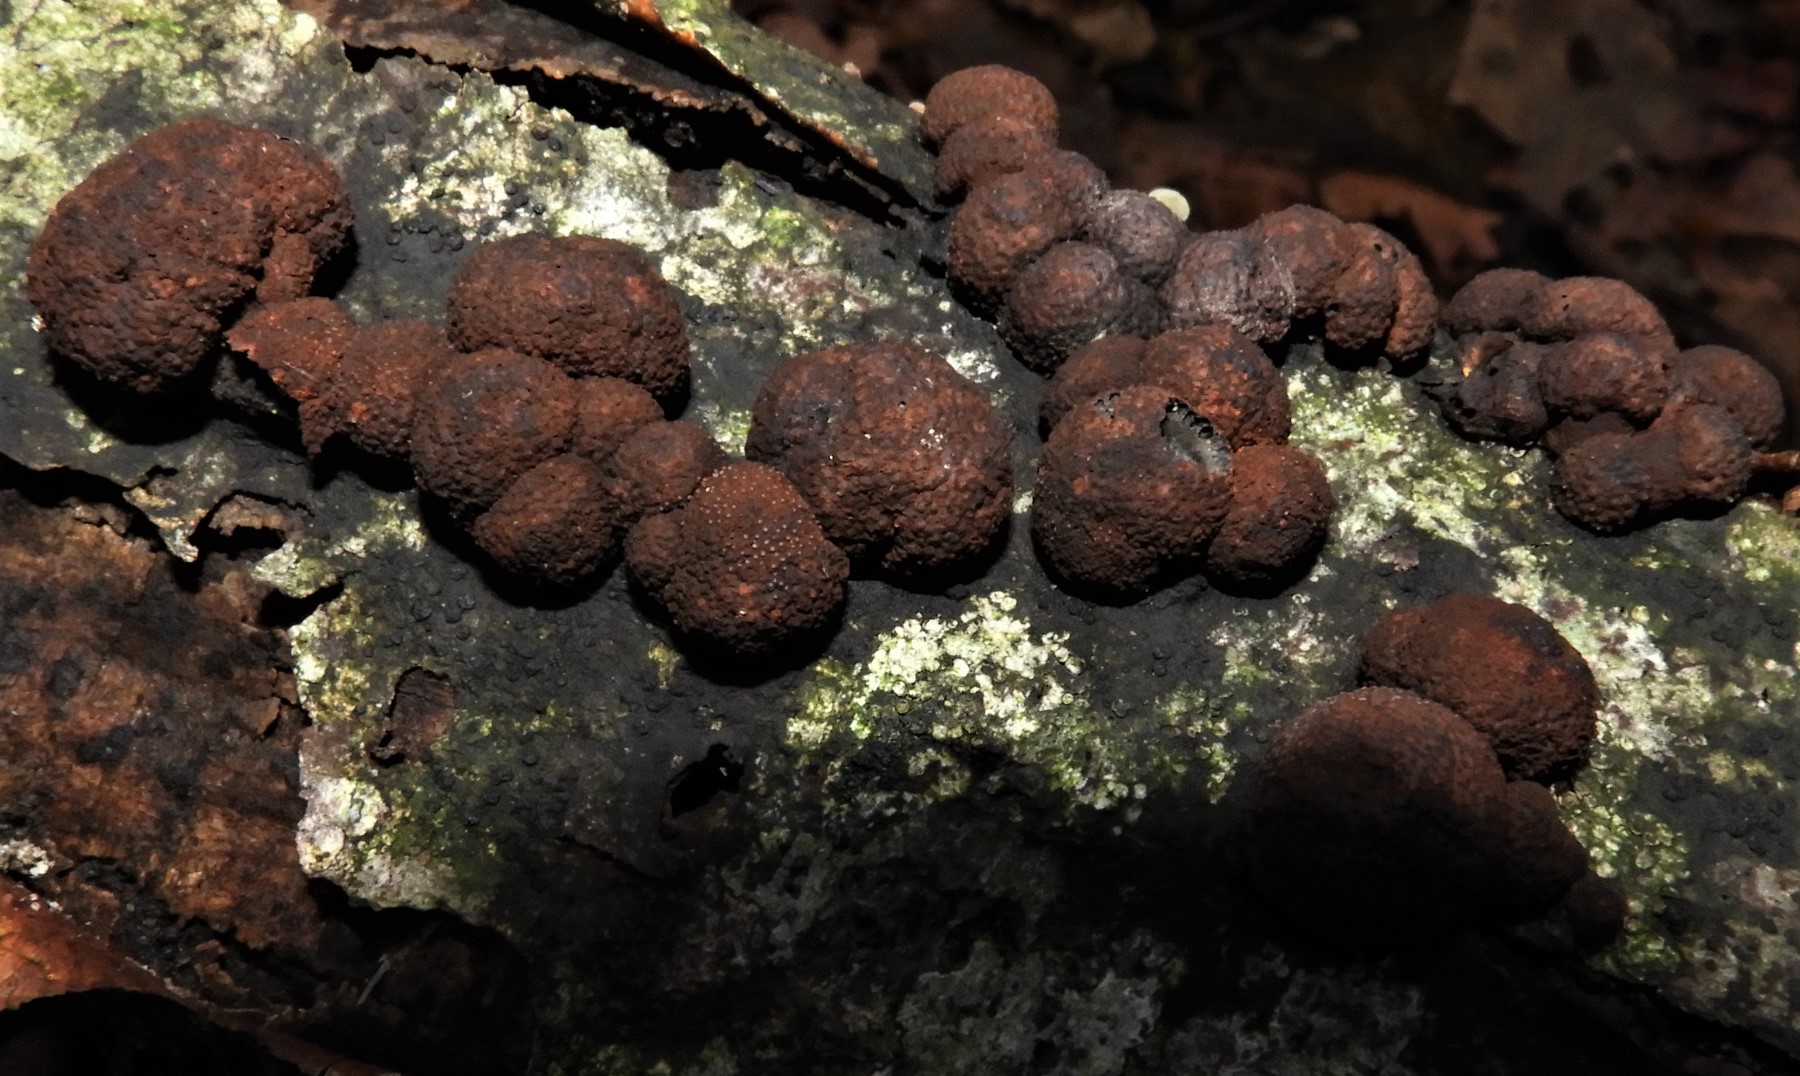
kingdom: Fungi
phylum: Ascomycota
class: Sordariomycetes
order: Xylariales
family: Hypoxylaceae
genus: Hypoxylon
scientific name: Hypoxylon fragiforme
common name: kuljordbær
